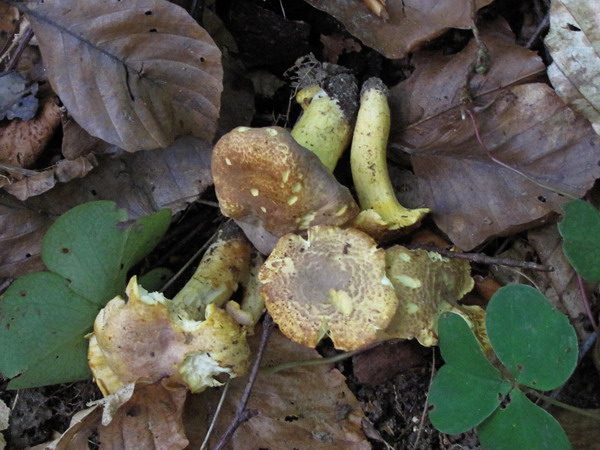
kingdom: Fungi
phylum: Basidiomycota
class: Agaricomycetes
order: Cantharellales
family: Hydnaceae
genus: Cantharellus
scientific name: Cantharellus amethysteus
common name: ametyst-kantarel
